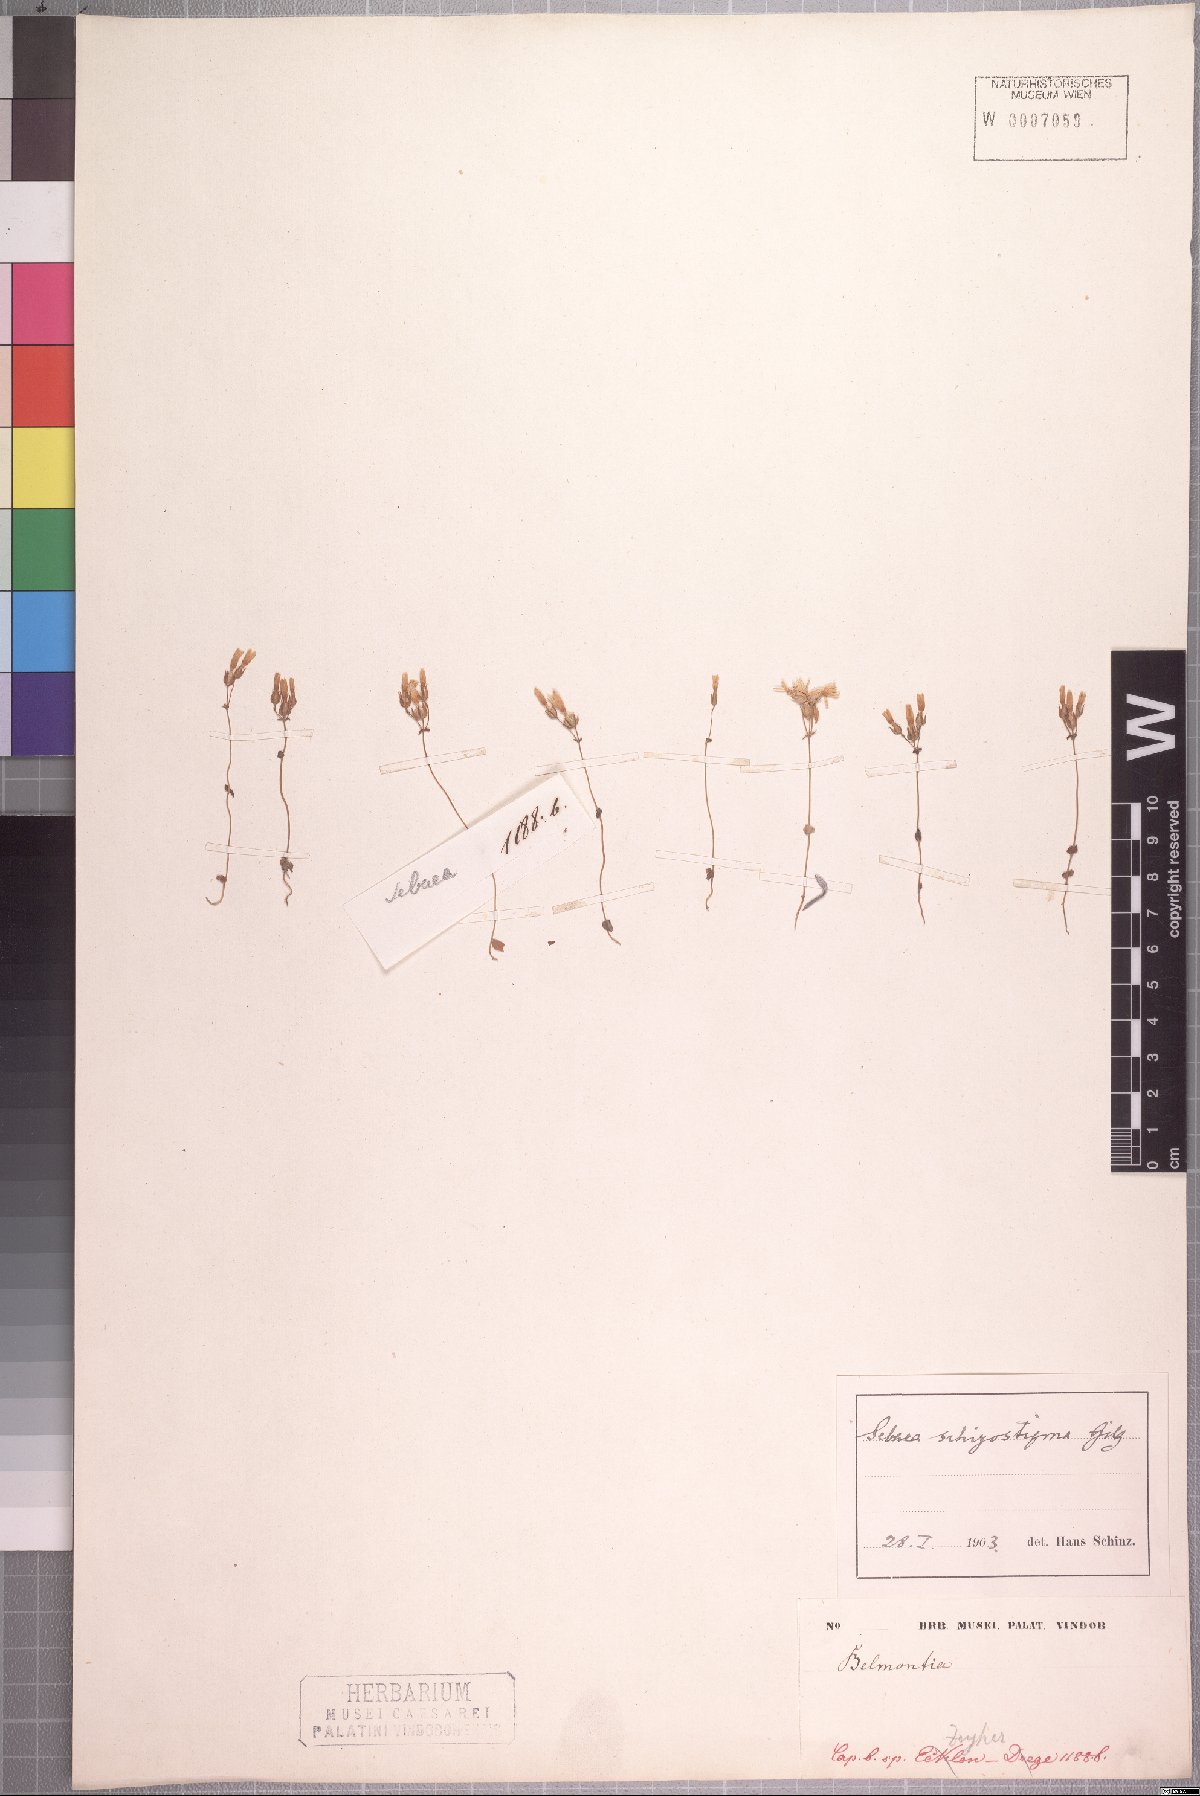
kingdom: Plantae
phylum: Tracheophyta
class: Magnoliopsida
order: Gentianales
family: Gentianaceae
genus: Sebaea
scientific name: Sebaea grisebachiana
